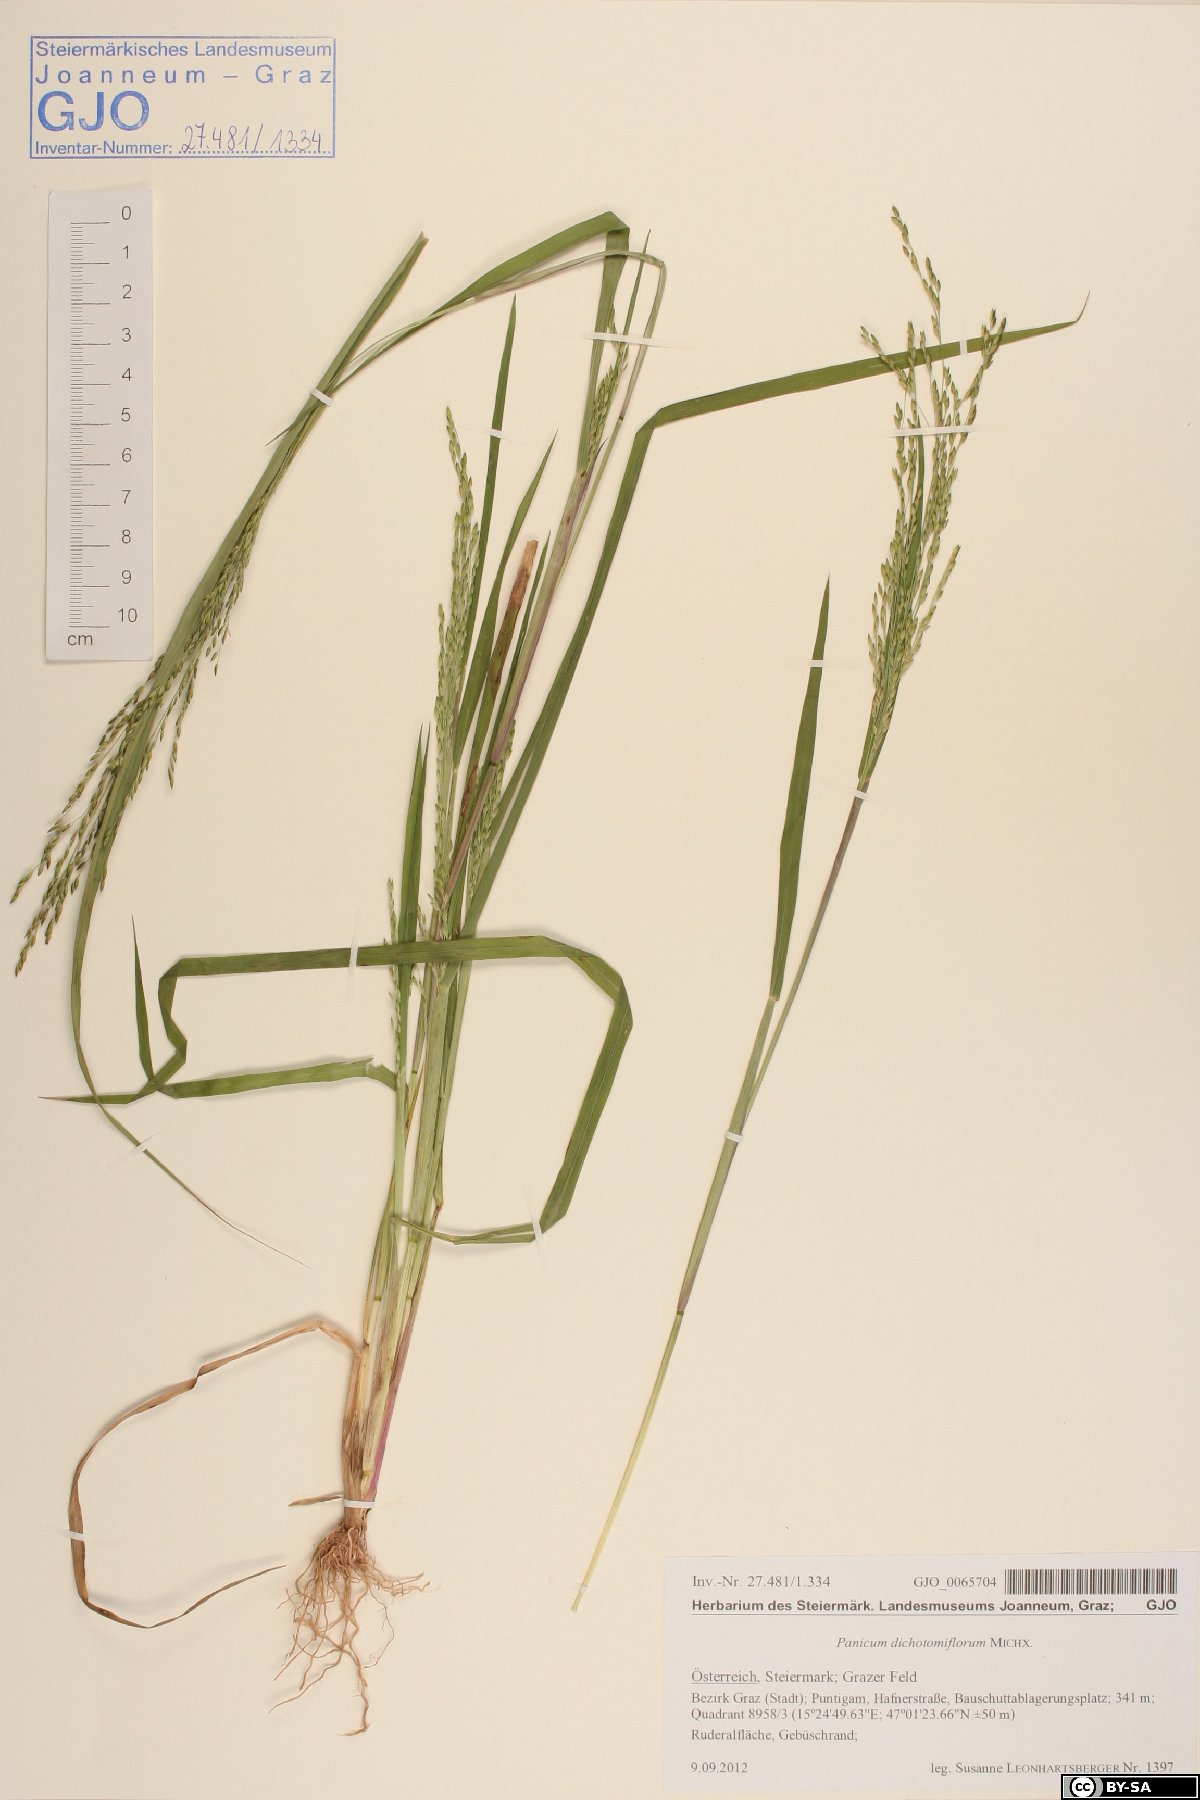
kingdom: Plantae
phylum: Tracheophyta
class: Liliopsida
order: Poales
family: Poaceae
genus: Panicum
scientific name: Panicum dichotomiflorum
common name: Autumn millet
